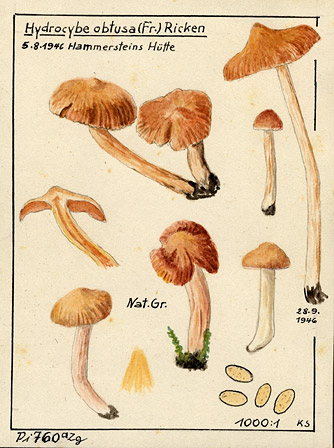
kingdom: Fungi
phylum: Basidiomycota
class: Agaricomycetes
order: Agaricales
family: Cortinariaceae
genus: Cortinarius
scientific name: Cortinarius obtusus
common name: Blunt webcap
